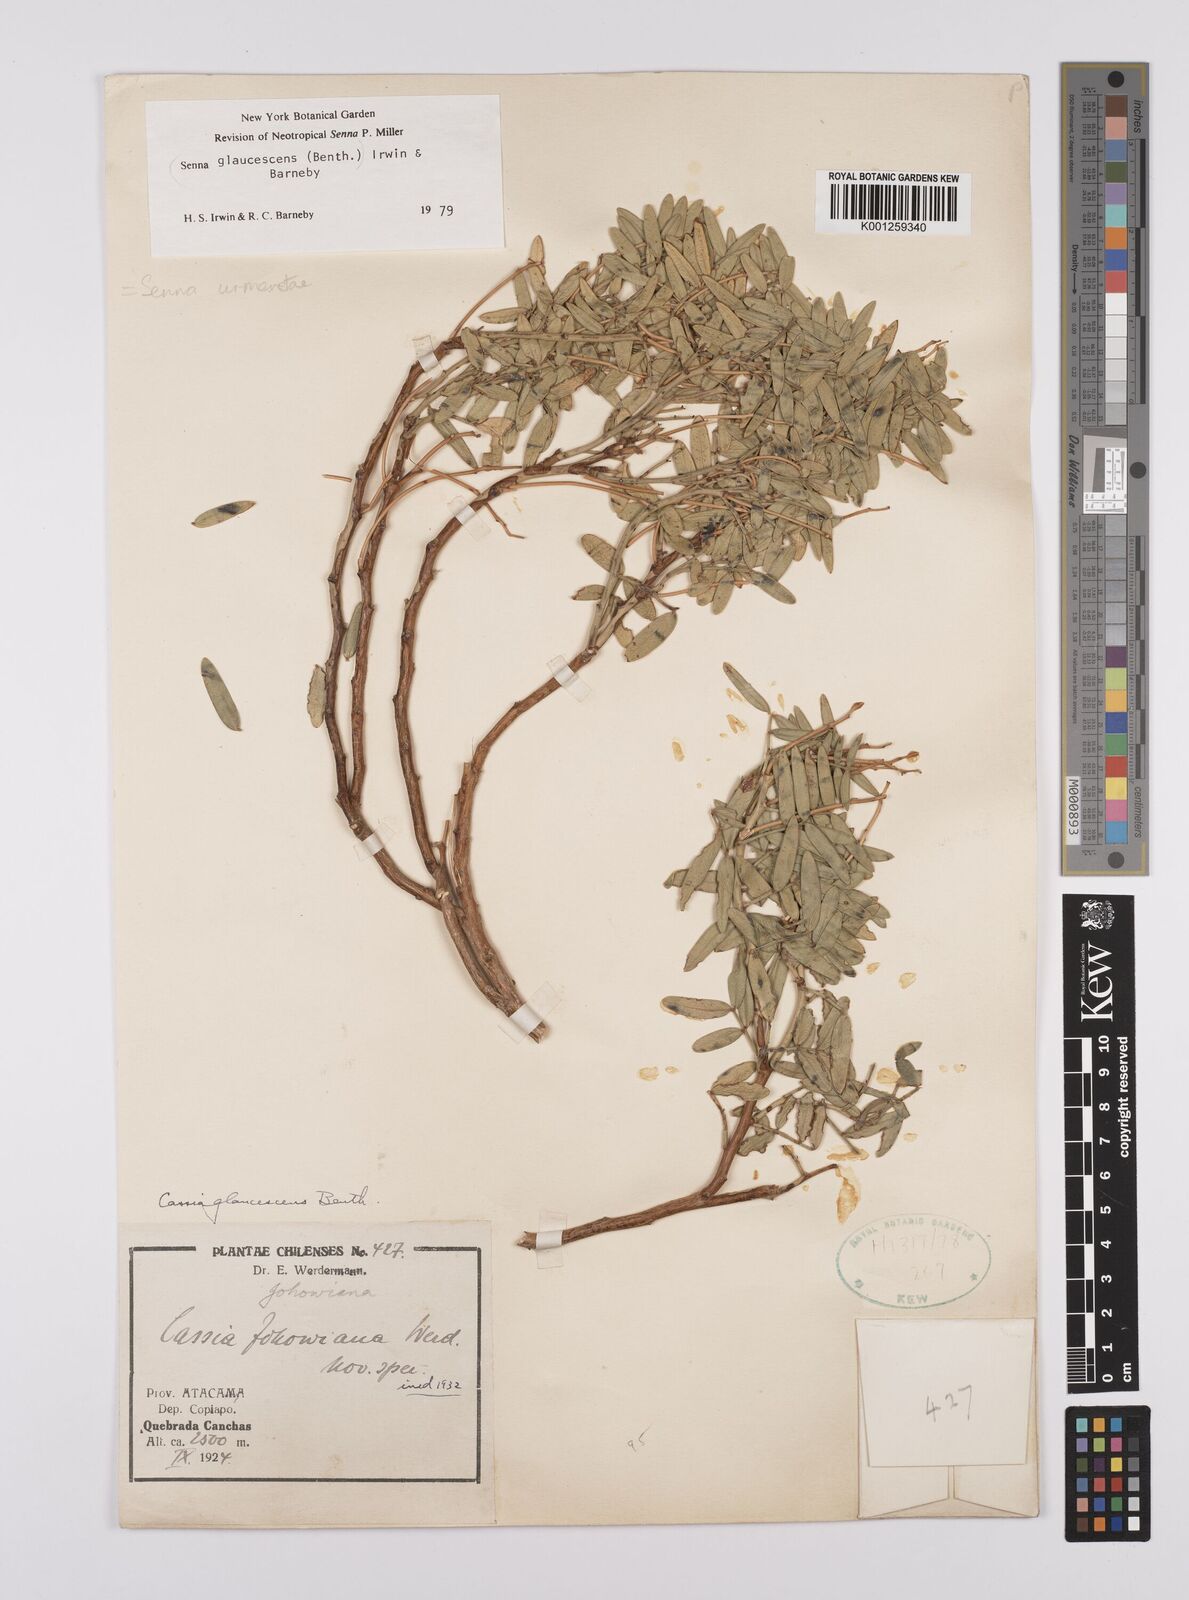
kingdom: Plantae
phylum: Tracheophyta
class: Magnoliopsida
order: Fabales
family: Fabaceae
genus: Senna
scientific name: Senna urmenetae
